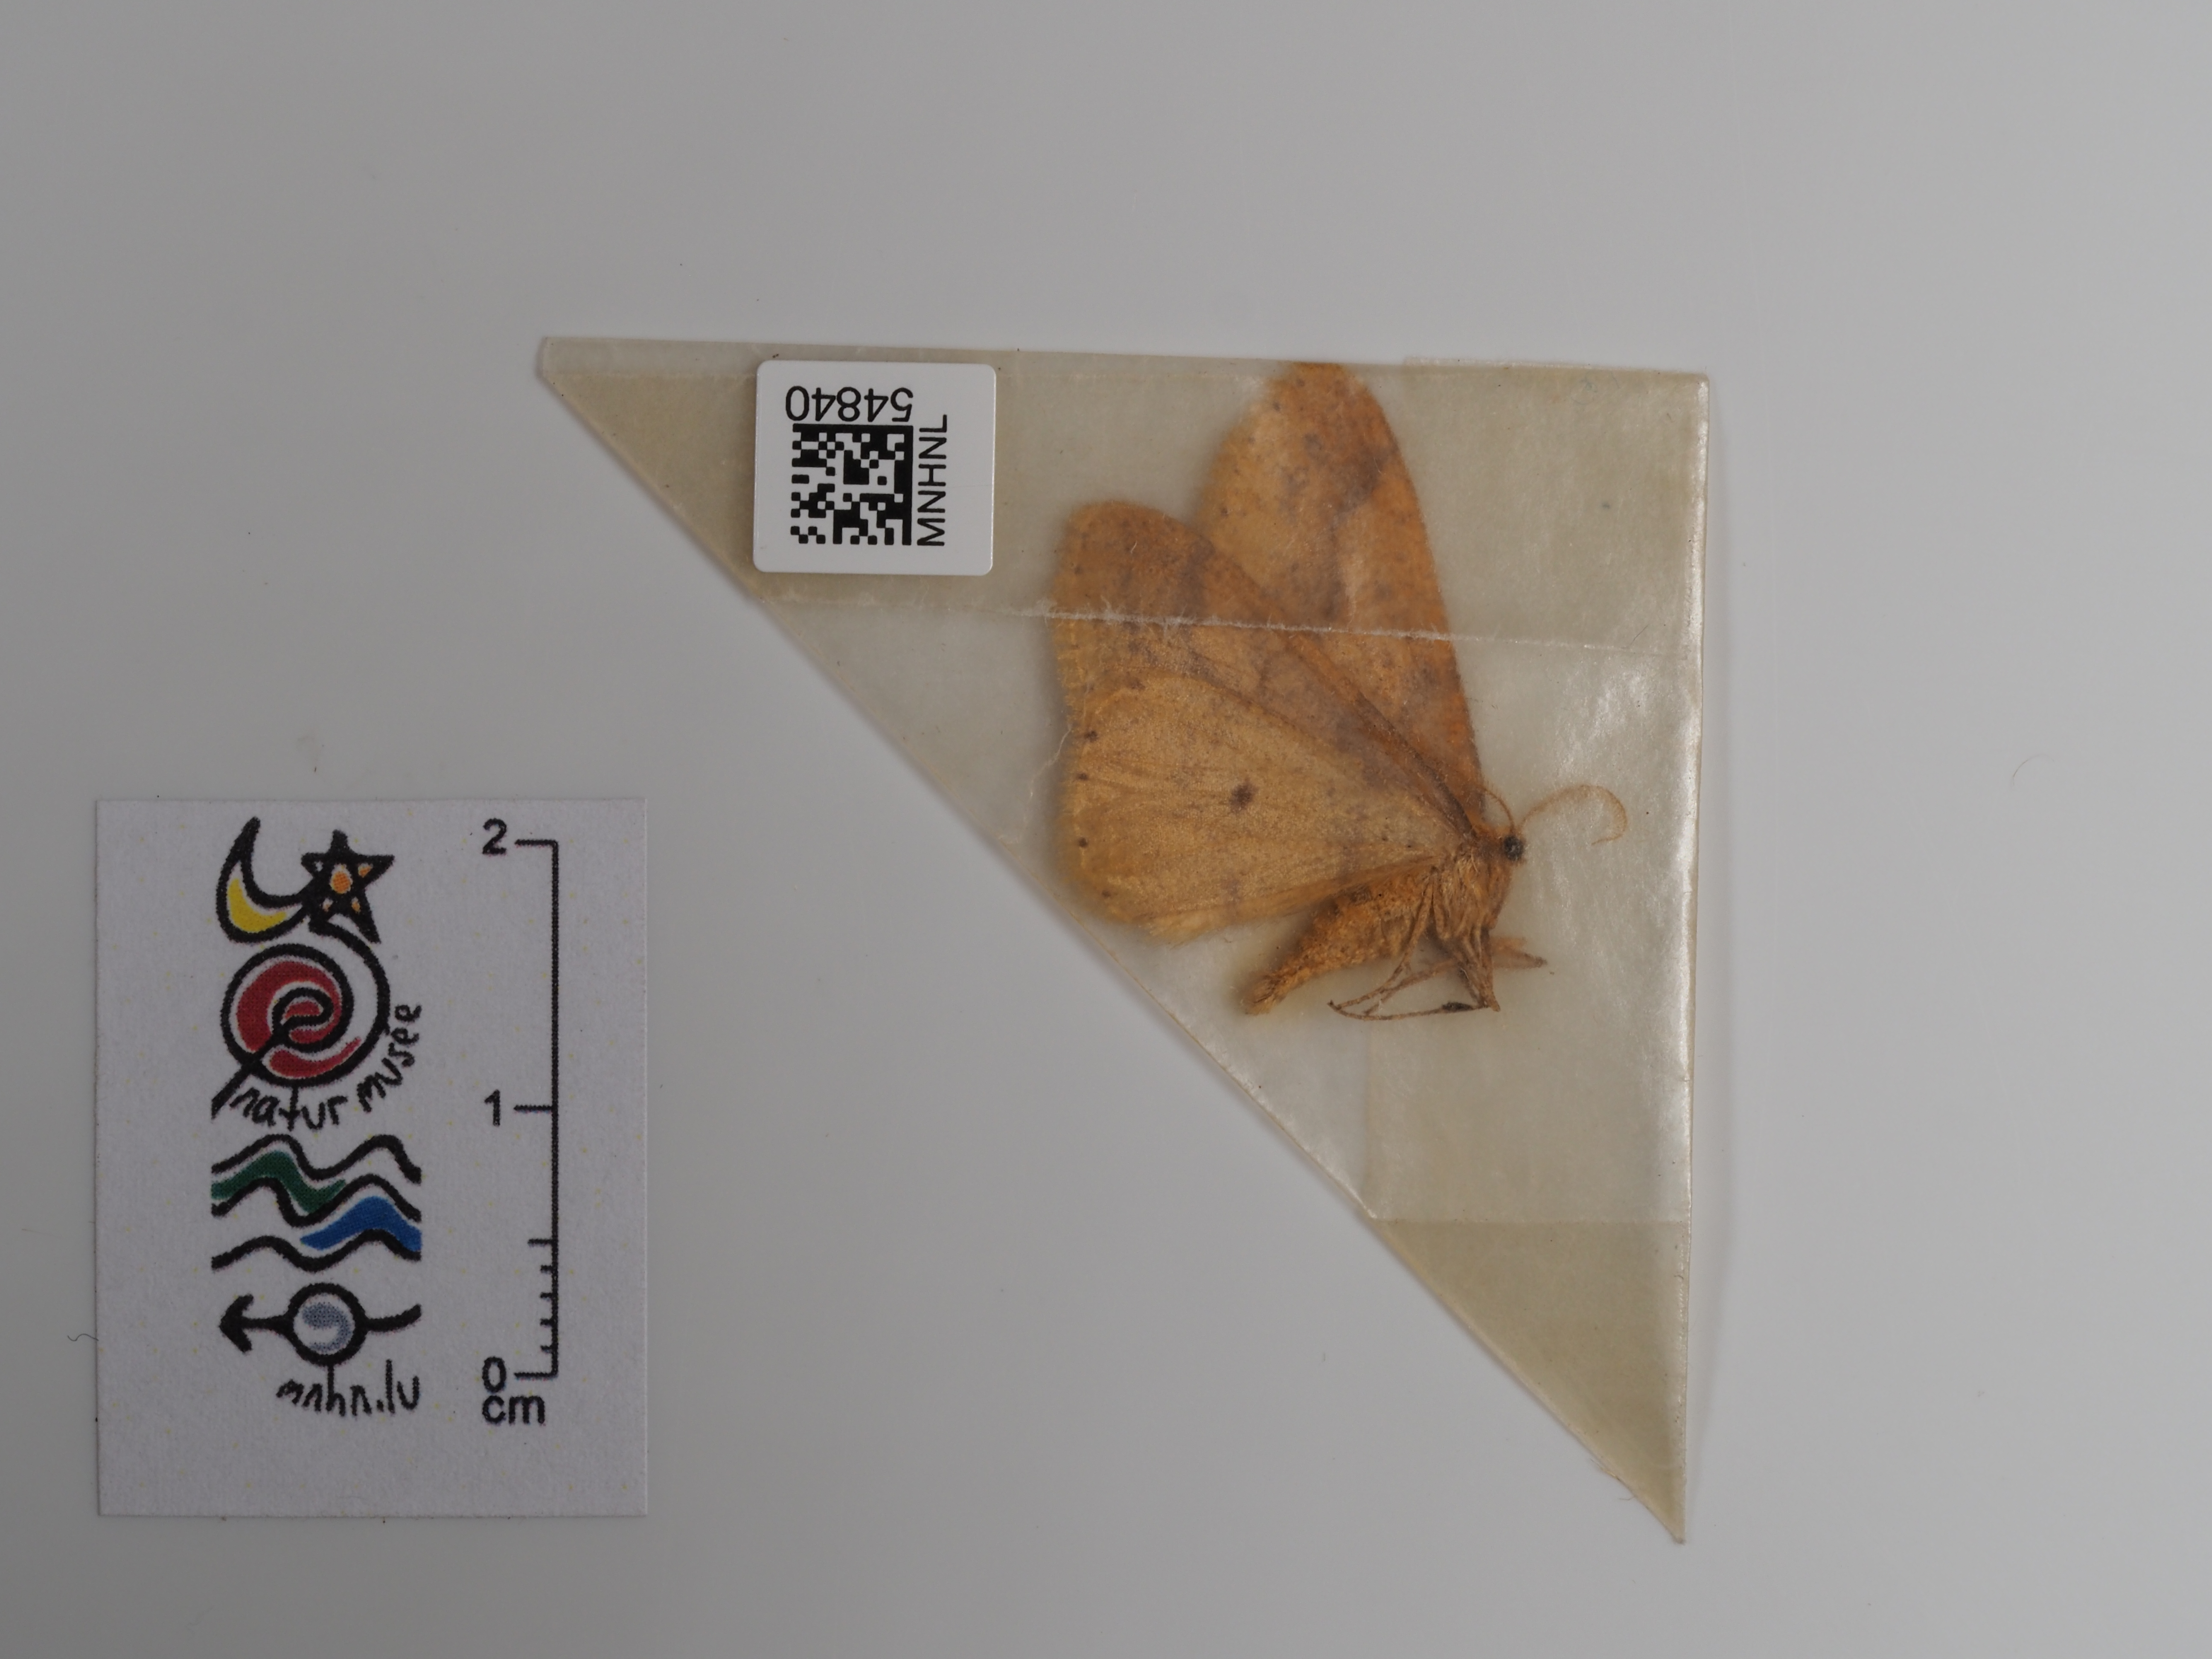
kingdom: Animalia
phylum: Arthropoda
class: Insecta
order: Lepidoptera
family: Geometridae
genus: Agriopis
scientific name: Agriopis aurantiaria
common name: Scarce umber
